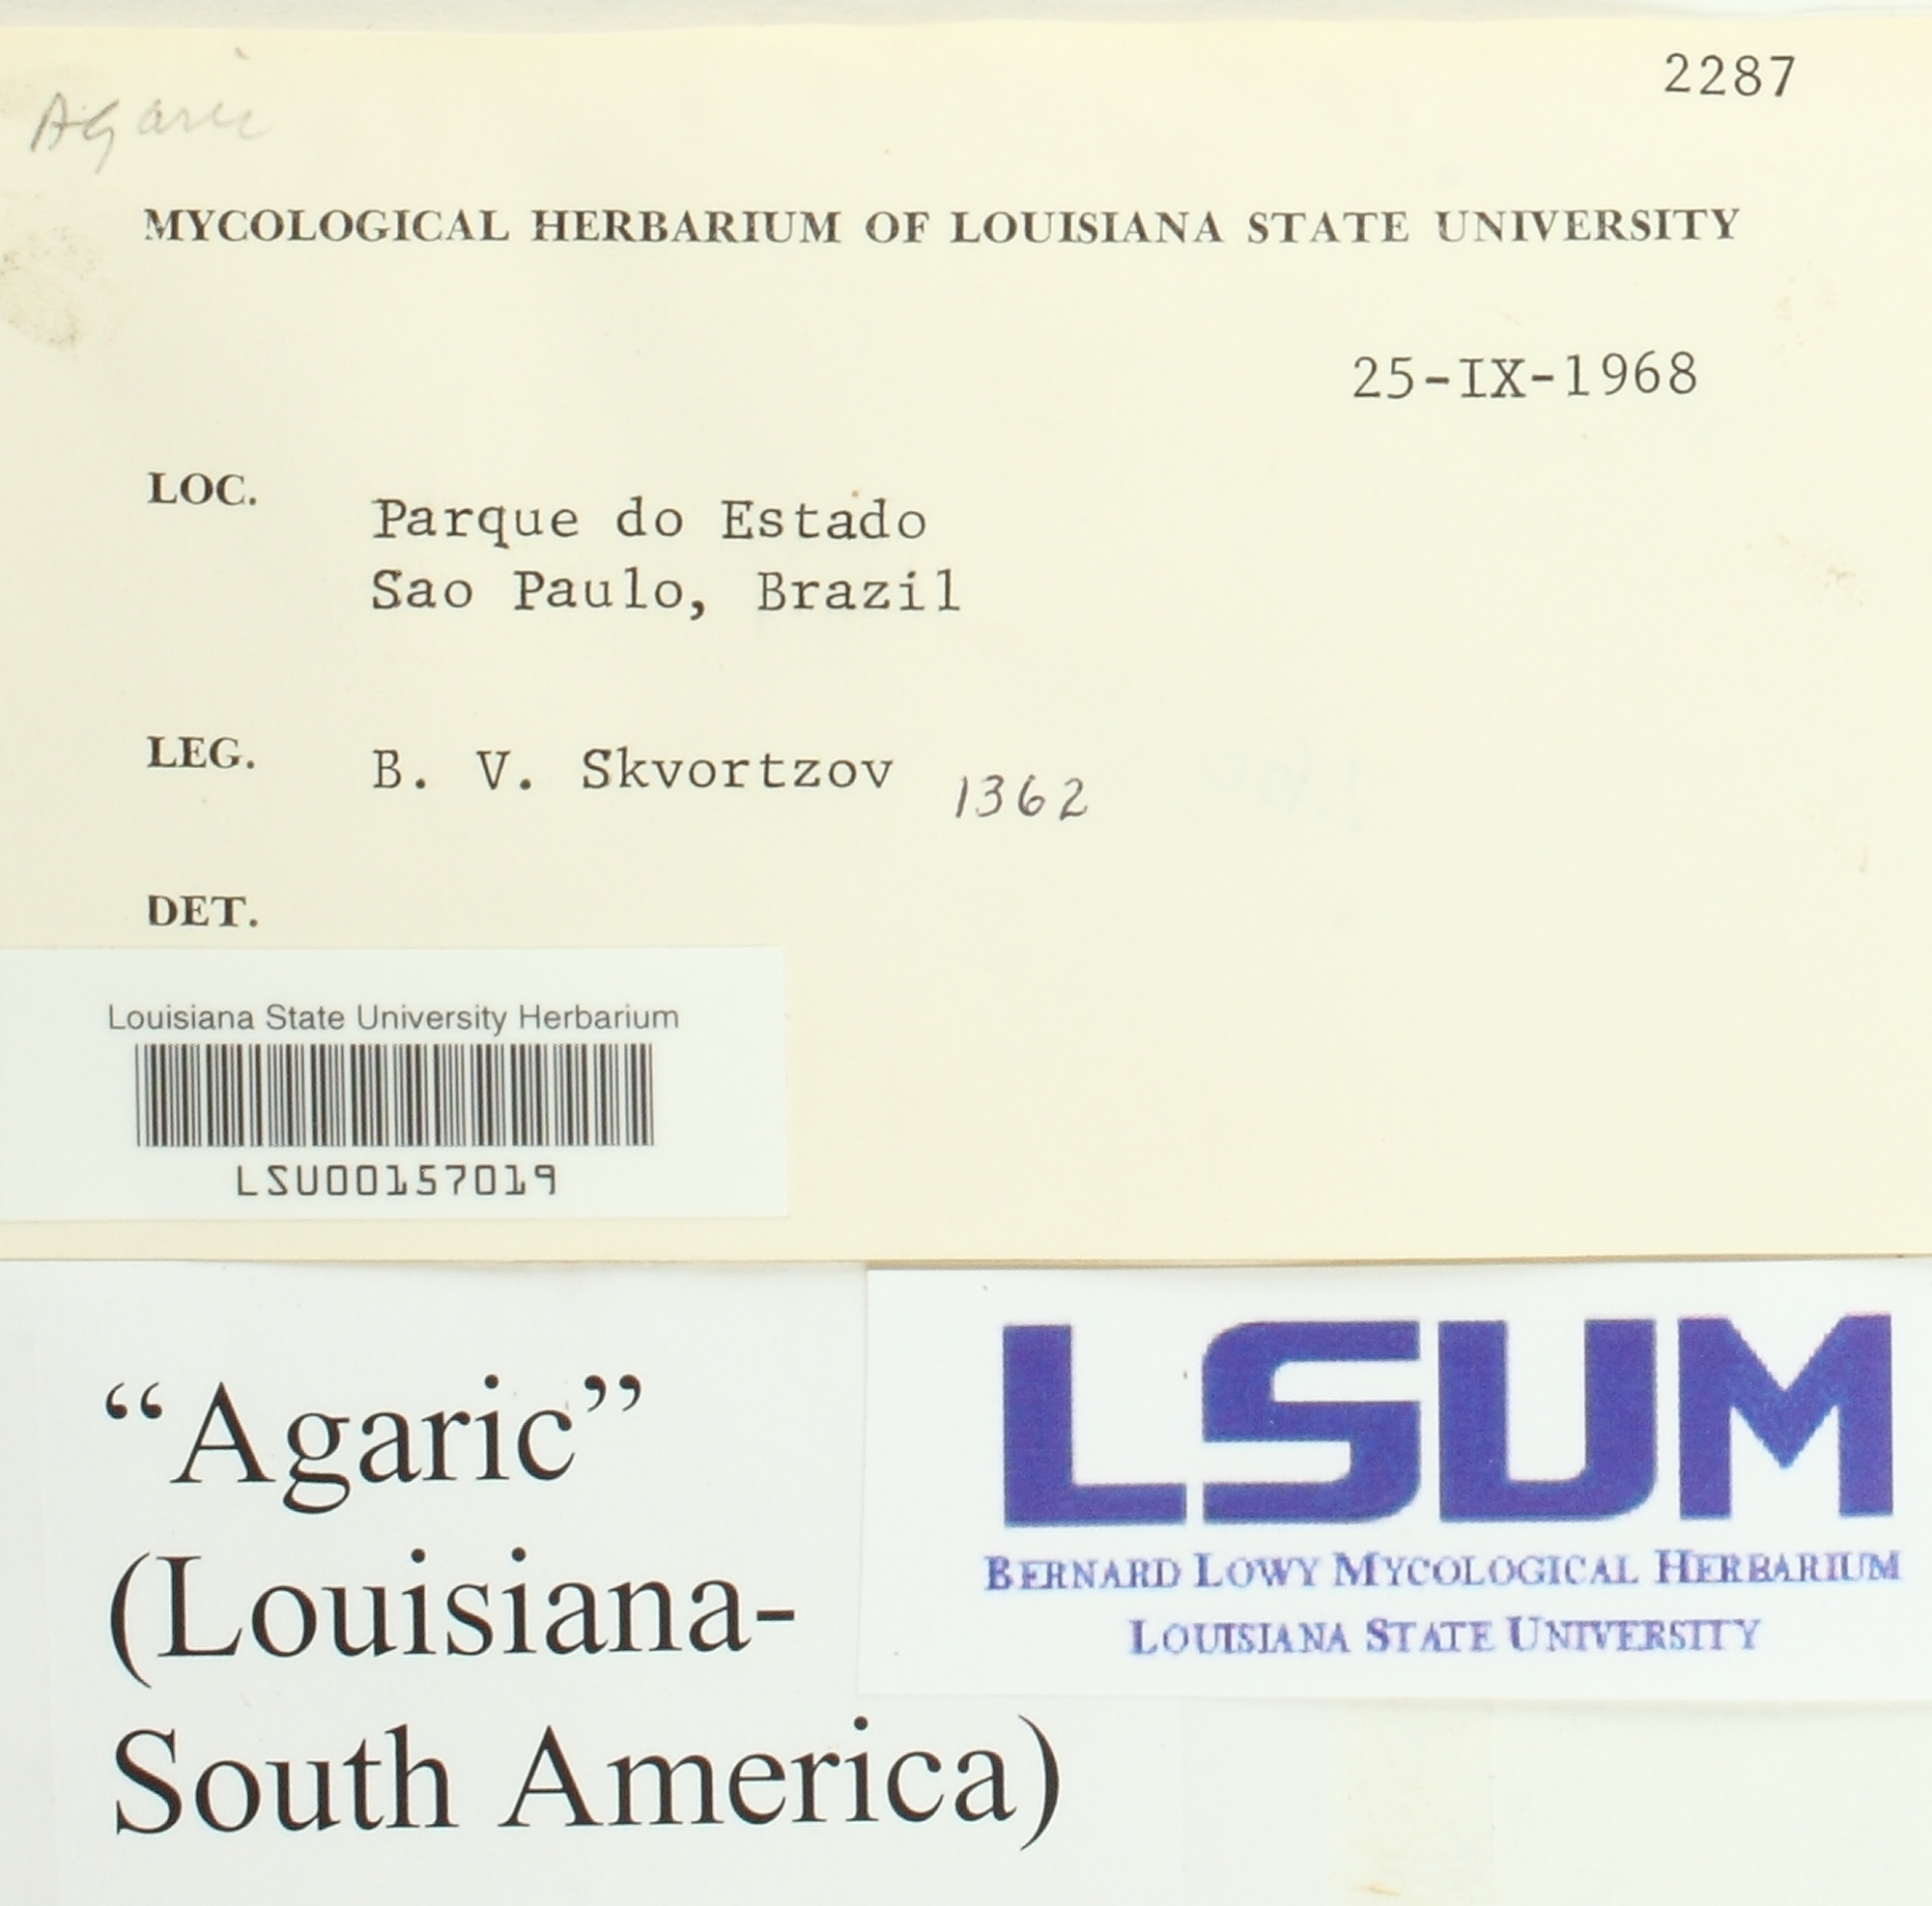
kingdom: Fungi
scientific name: Fungi
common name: Fungi
